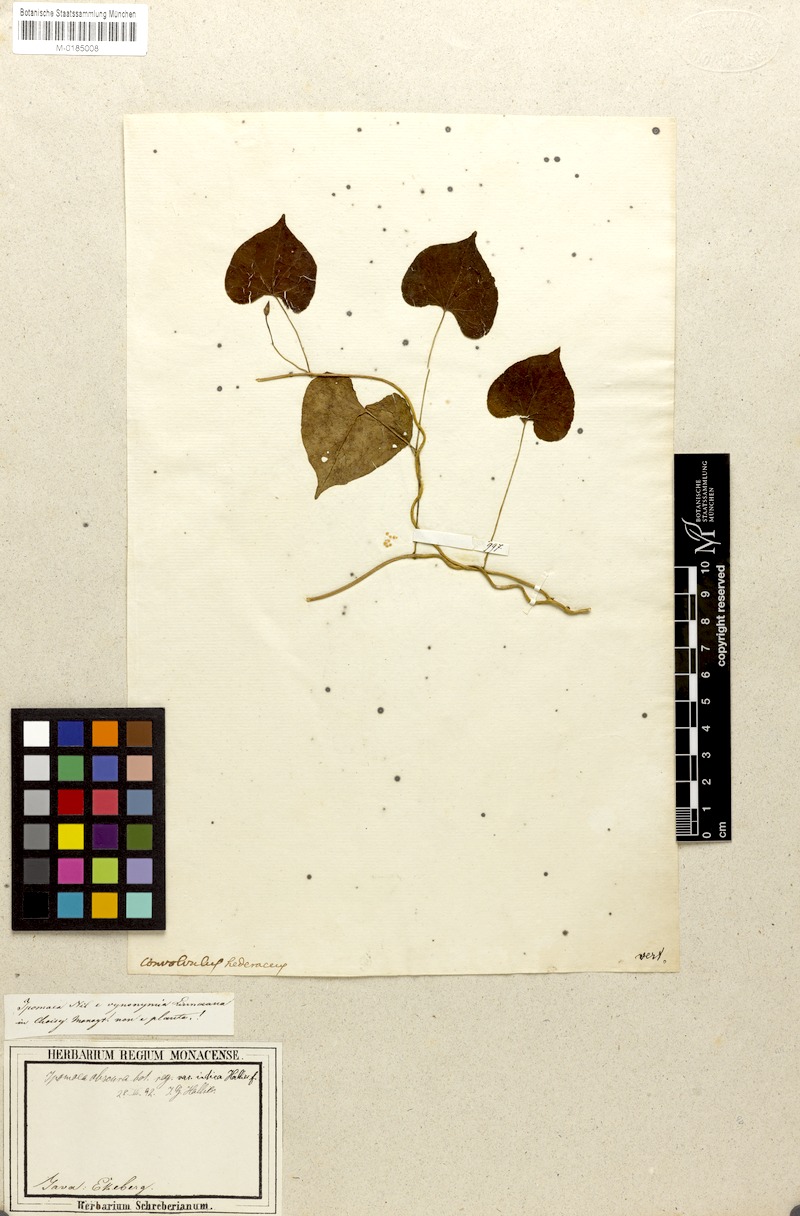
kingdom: Plantae
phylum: Tracheophyta
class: Magnoliopsida
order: Solanales
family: Convolvulaceae
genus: Ipomoea
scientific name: Ipomoea obscura
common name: Obscure morning-glory
